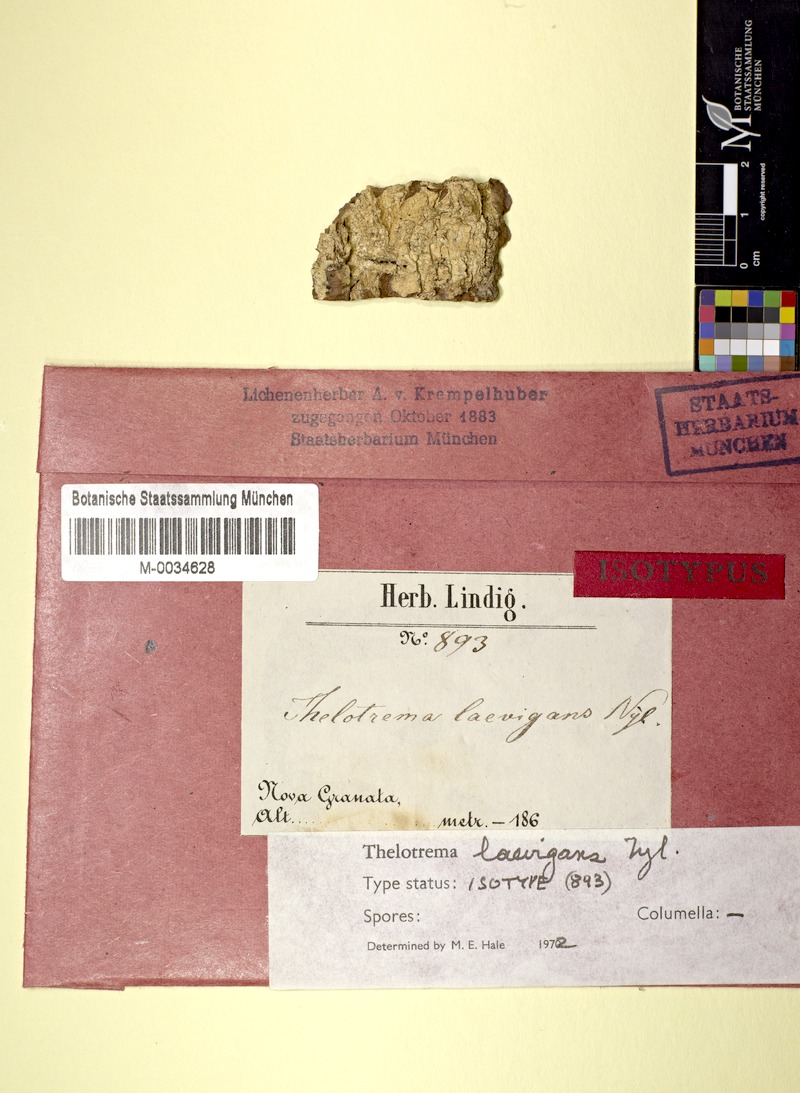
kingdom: Fungi
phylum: Ascomycota
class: Lecanoromycetes
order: Ostropales
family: Graphidaceae
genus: Clandestinotrema
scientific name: Clandestinotrema erumpens
